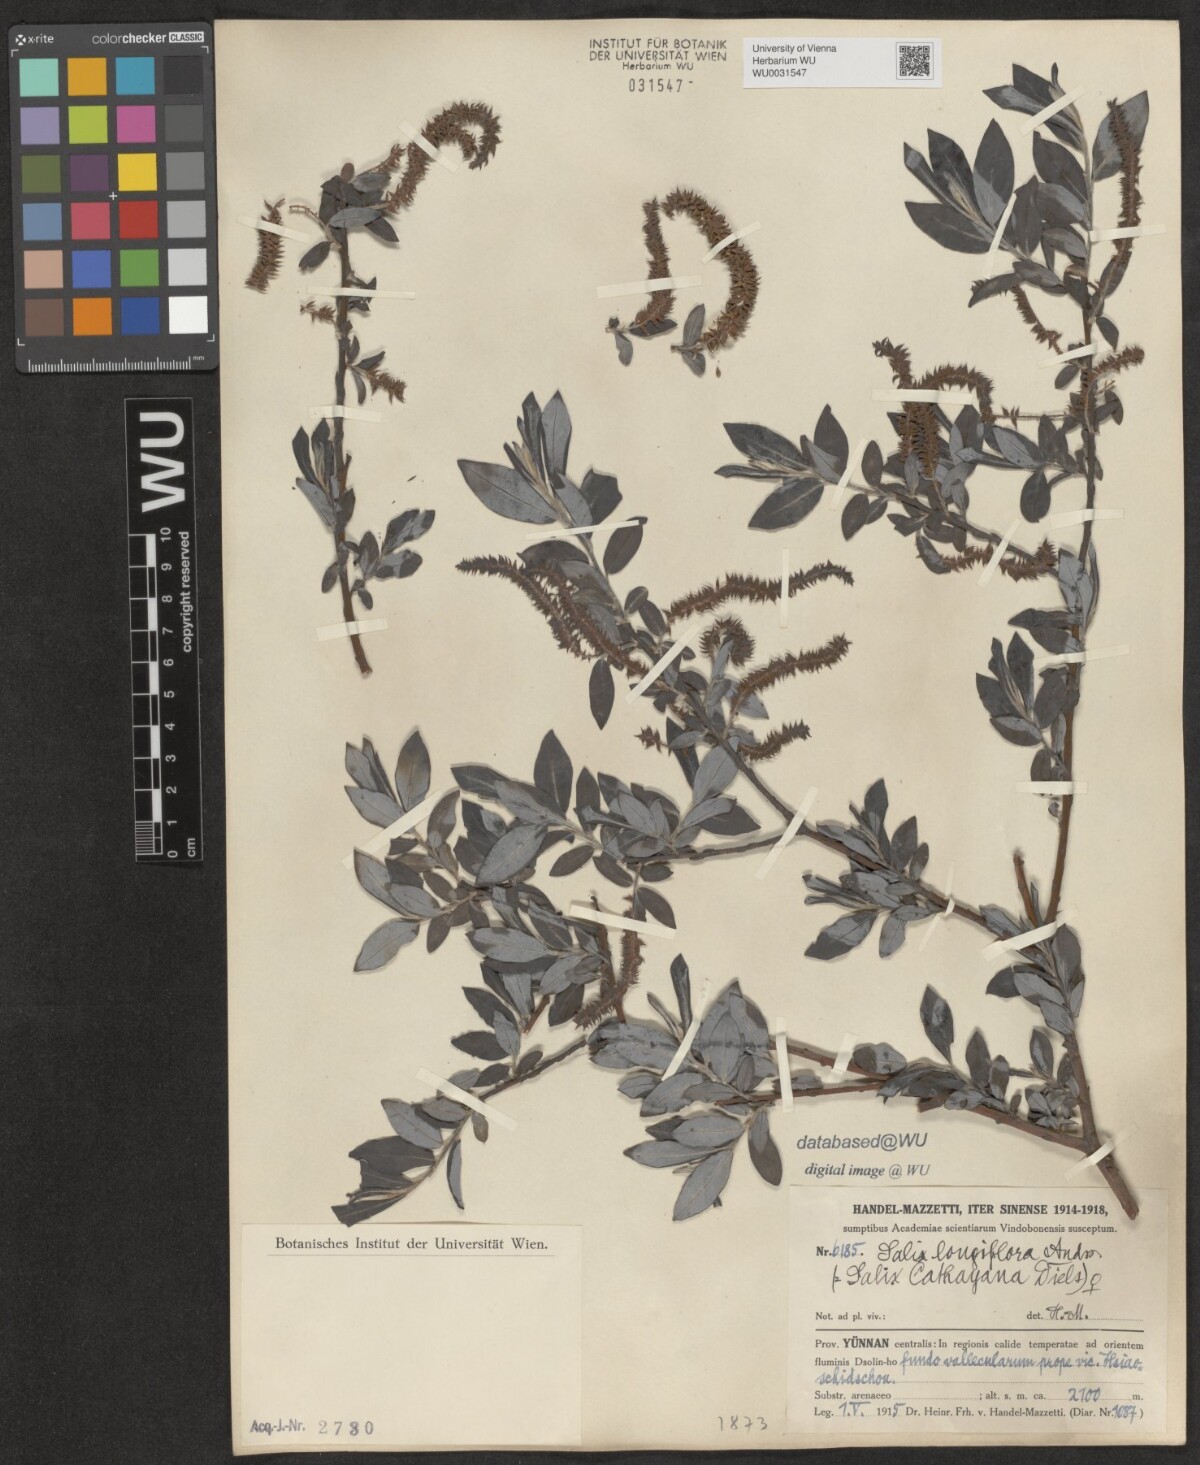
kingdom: Plantae
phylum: Tracheophyta
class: Magnoliopsida
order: Malpighiales
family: Salicaceae
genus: Salix
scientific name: Salix longiflora
